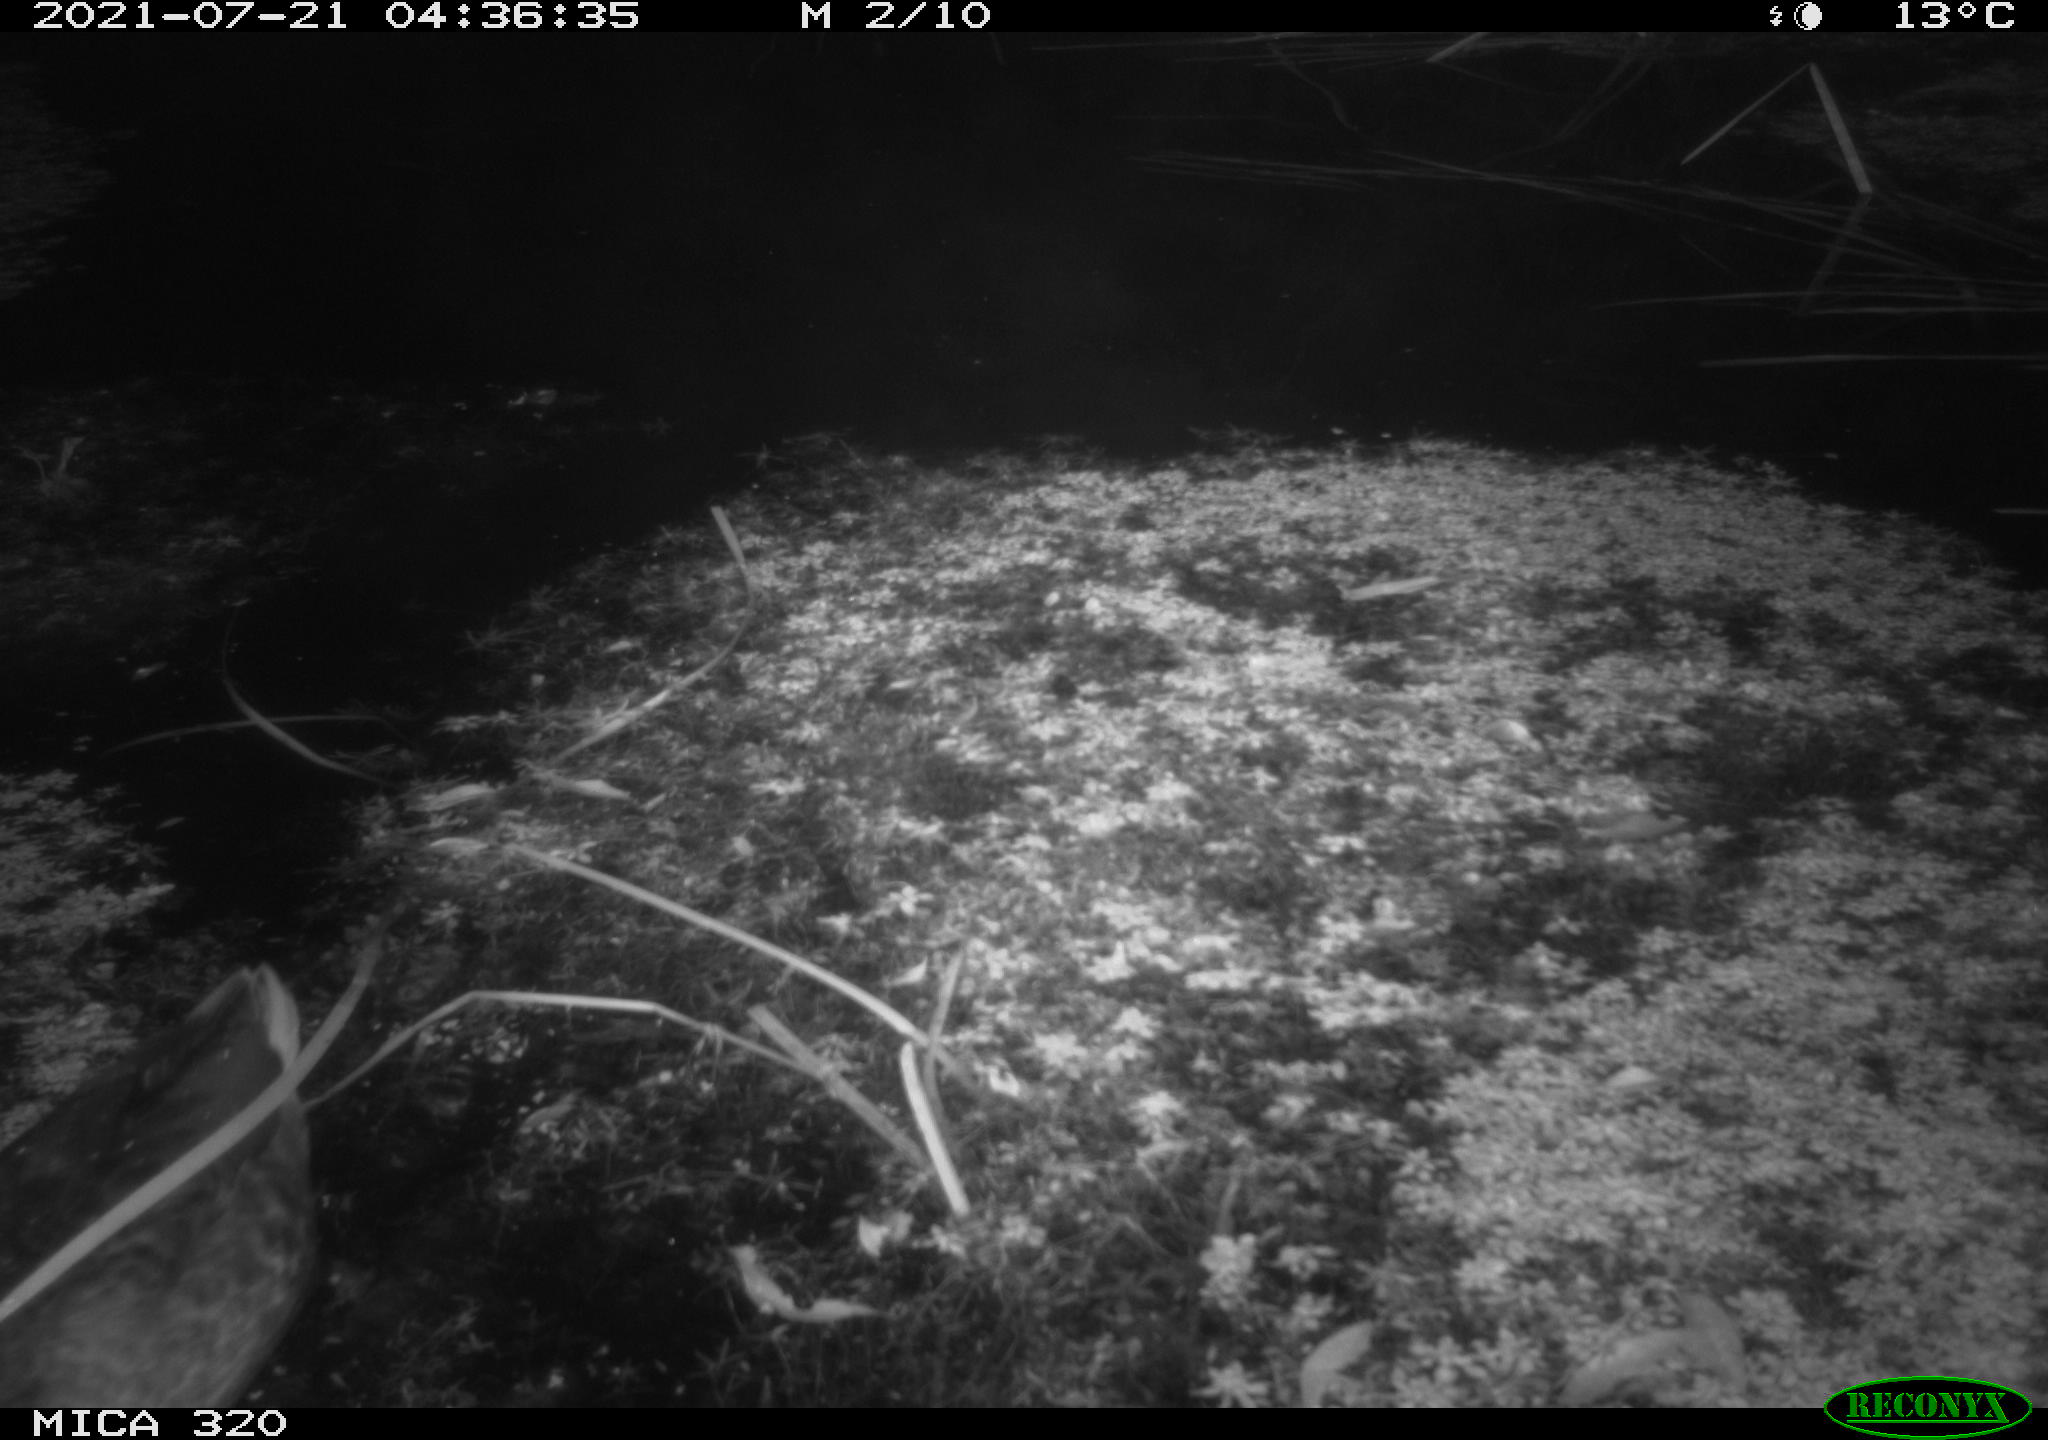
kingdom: Animalia
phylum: Chordata
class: Aves
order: Anseriformes
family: Anatidae
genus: Anas
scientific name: Anas platyrhynchos
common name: Mallard
